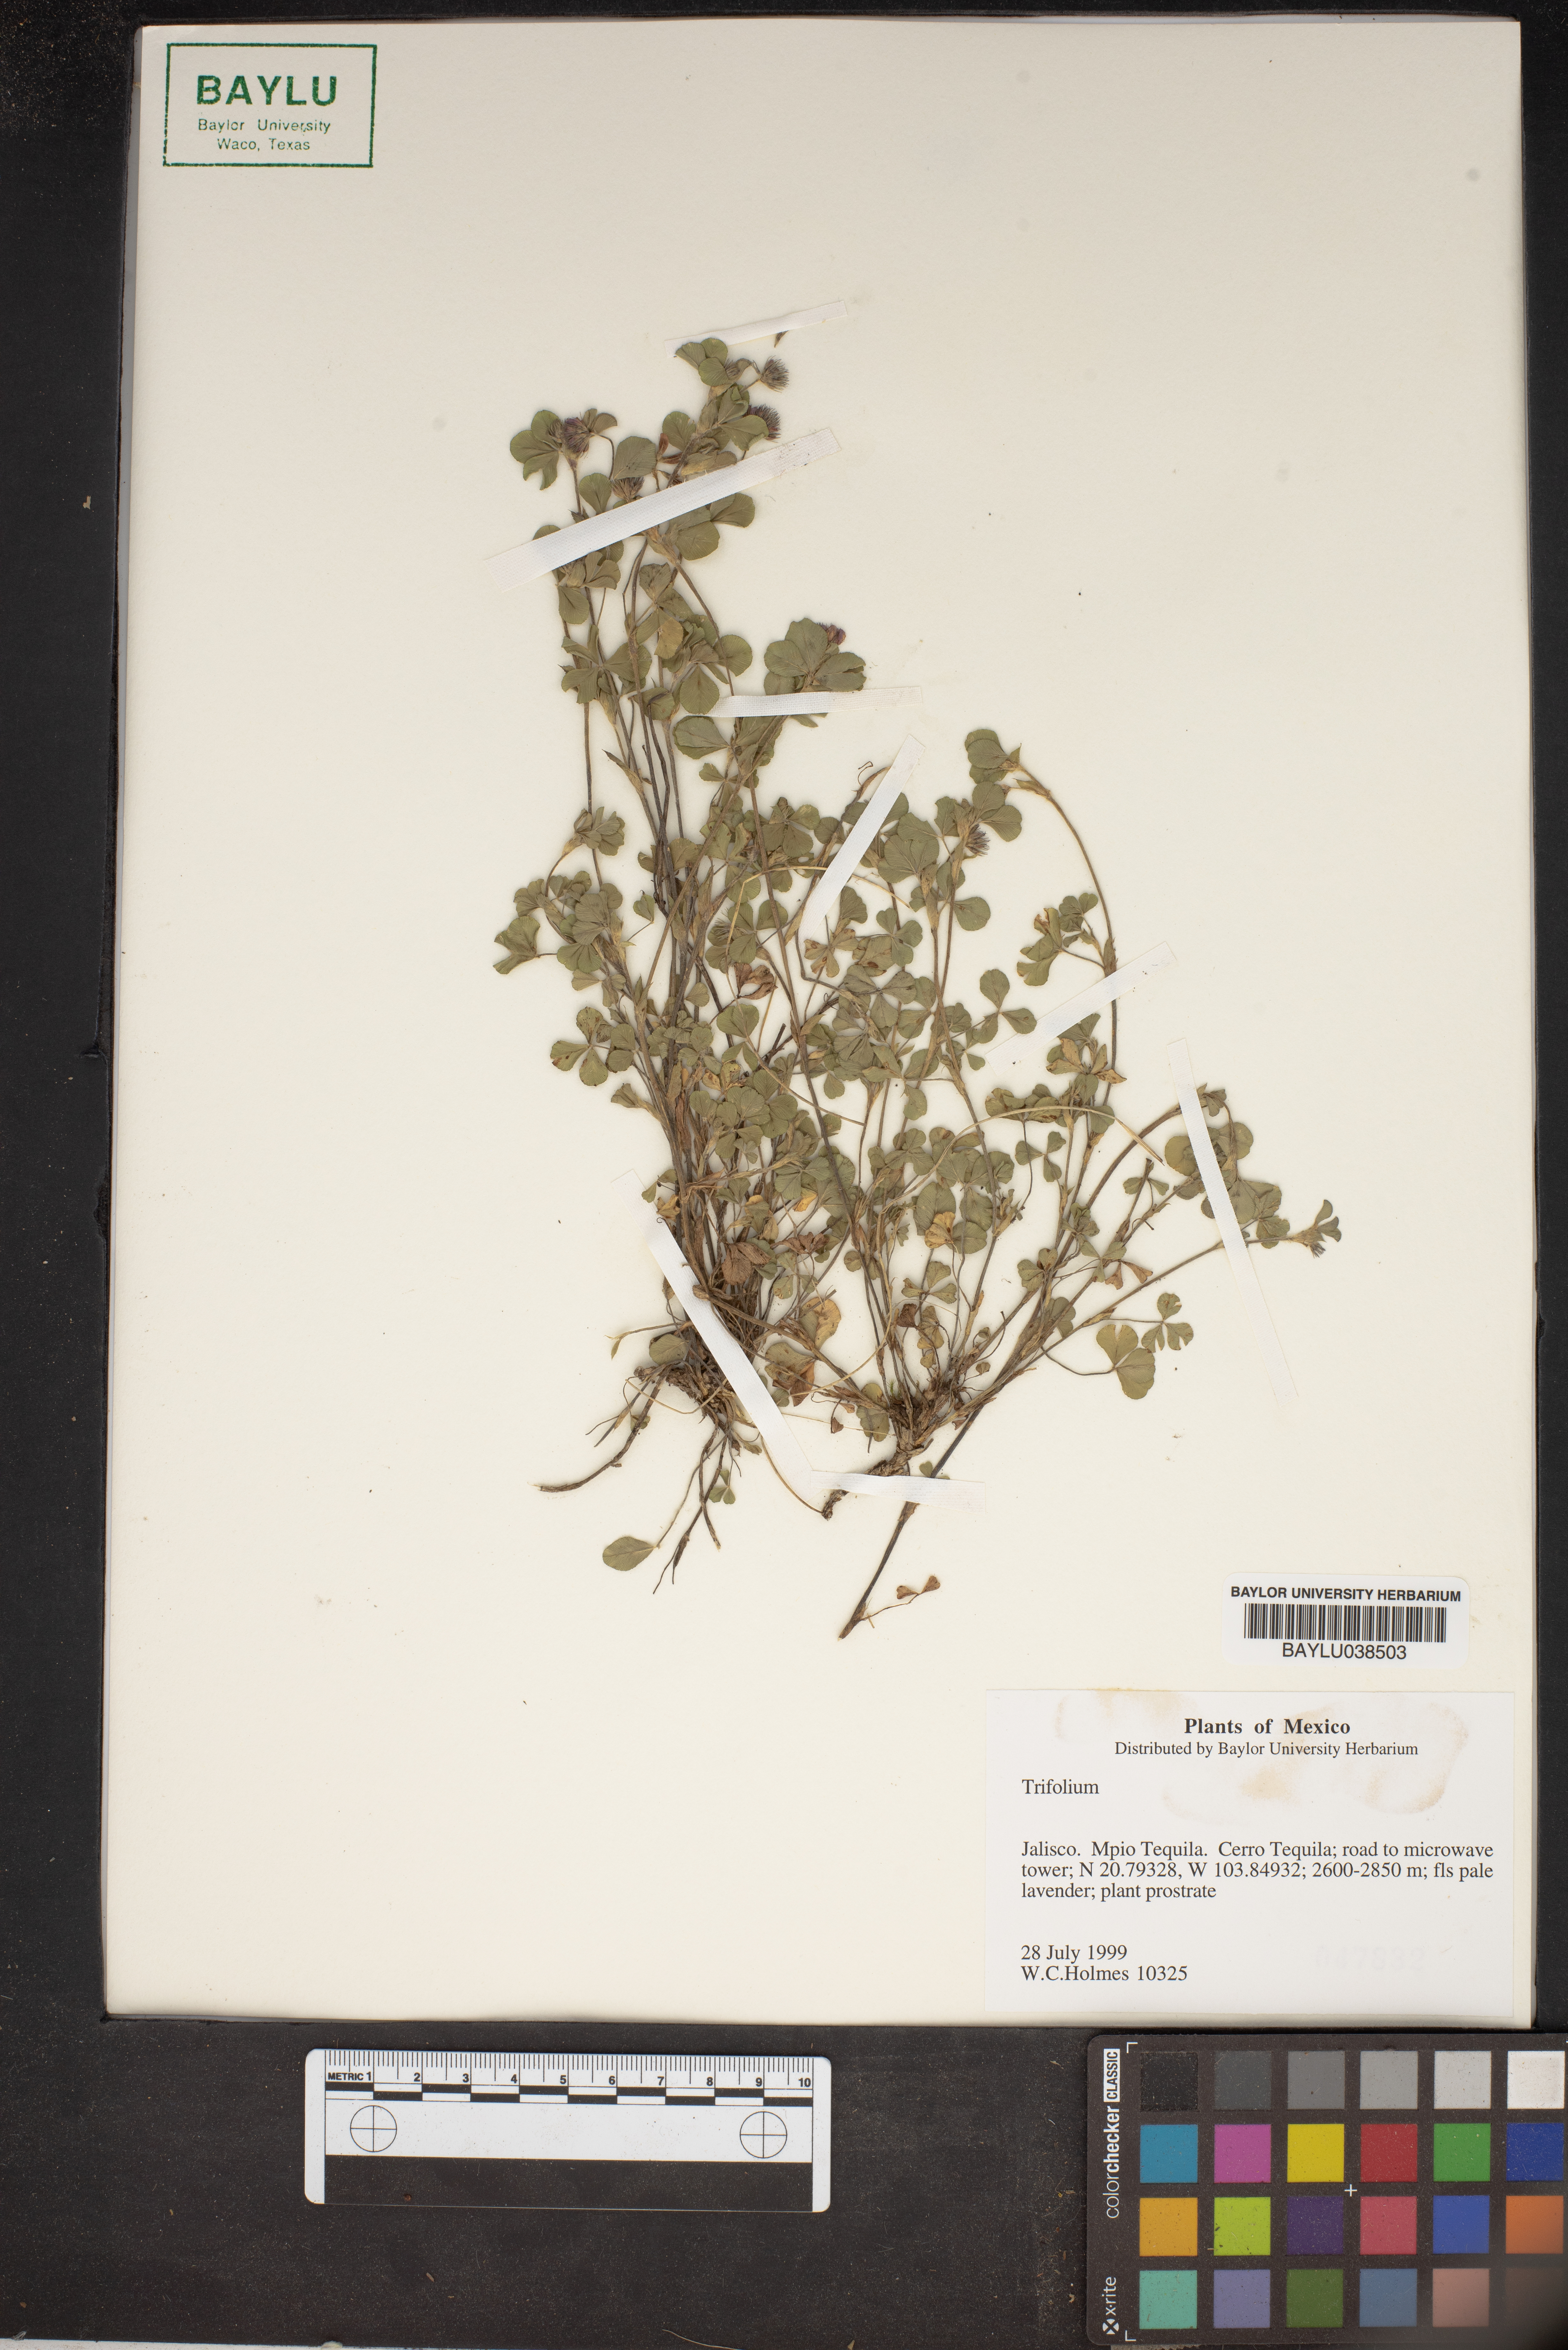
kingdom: Plantae
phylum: Tracheophyta
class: Magnoliopsida
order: Fabales
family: Fabaceae
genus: Trifolium
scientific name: Trifolium
